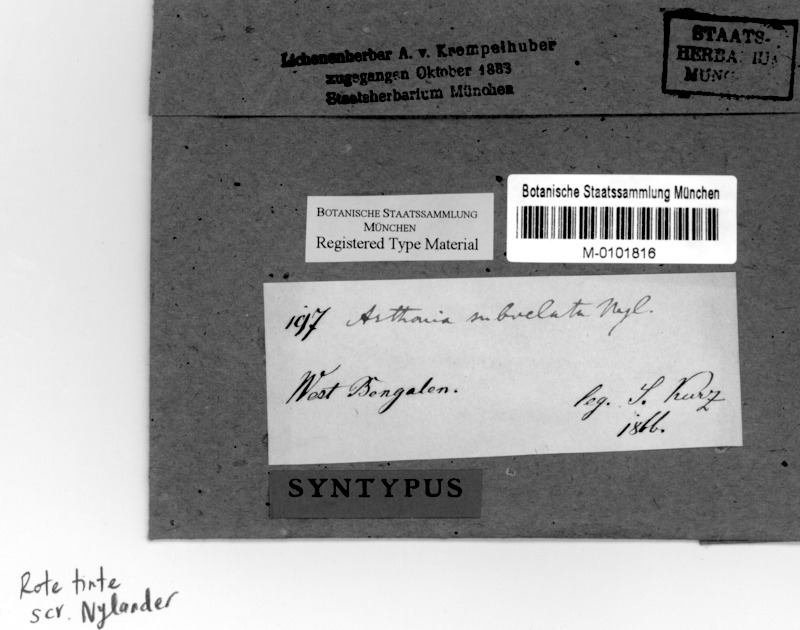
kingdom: Fungi
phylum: Ascomycota
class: Arthoniomycetes
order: Arthoniales
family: Arthoniaceae
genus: Arthonia
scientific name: Arthonia
